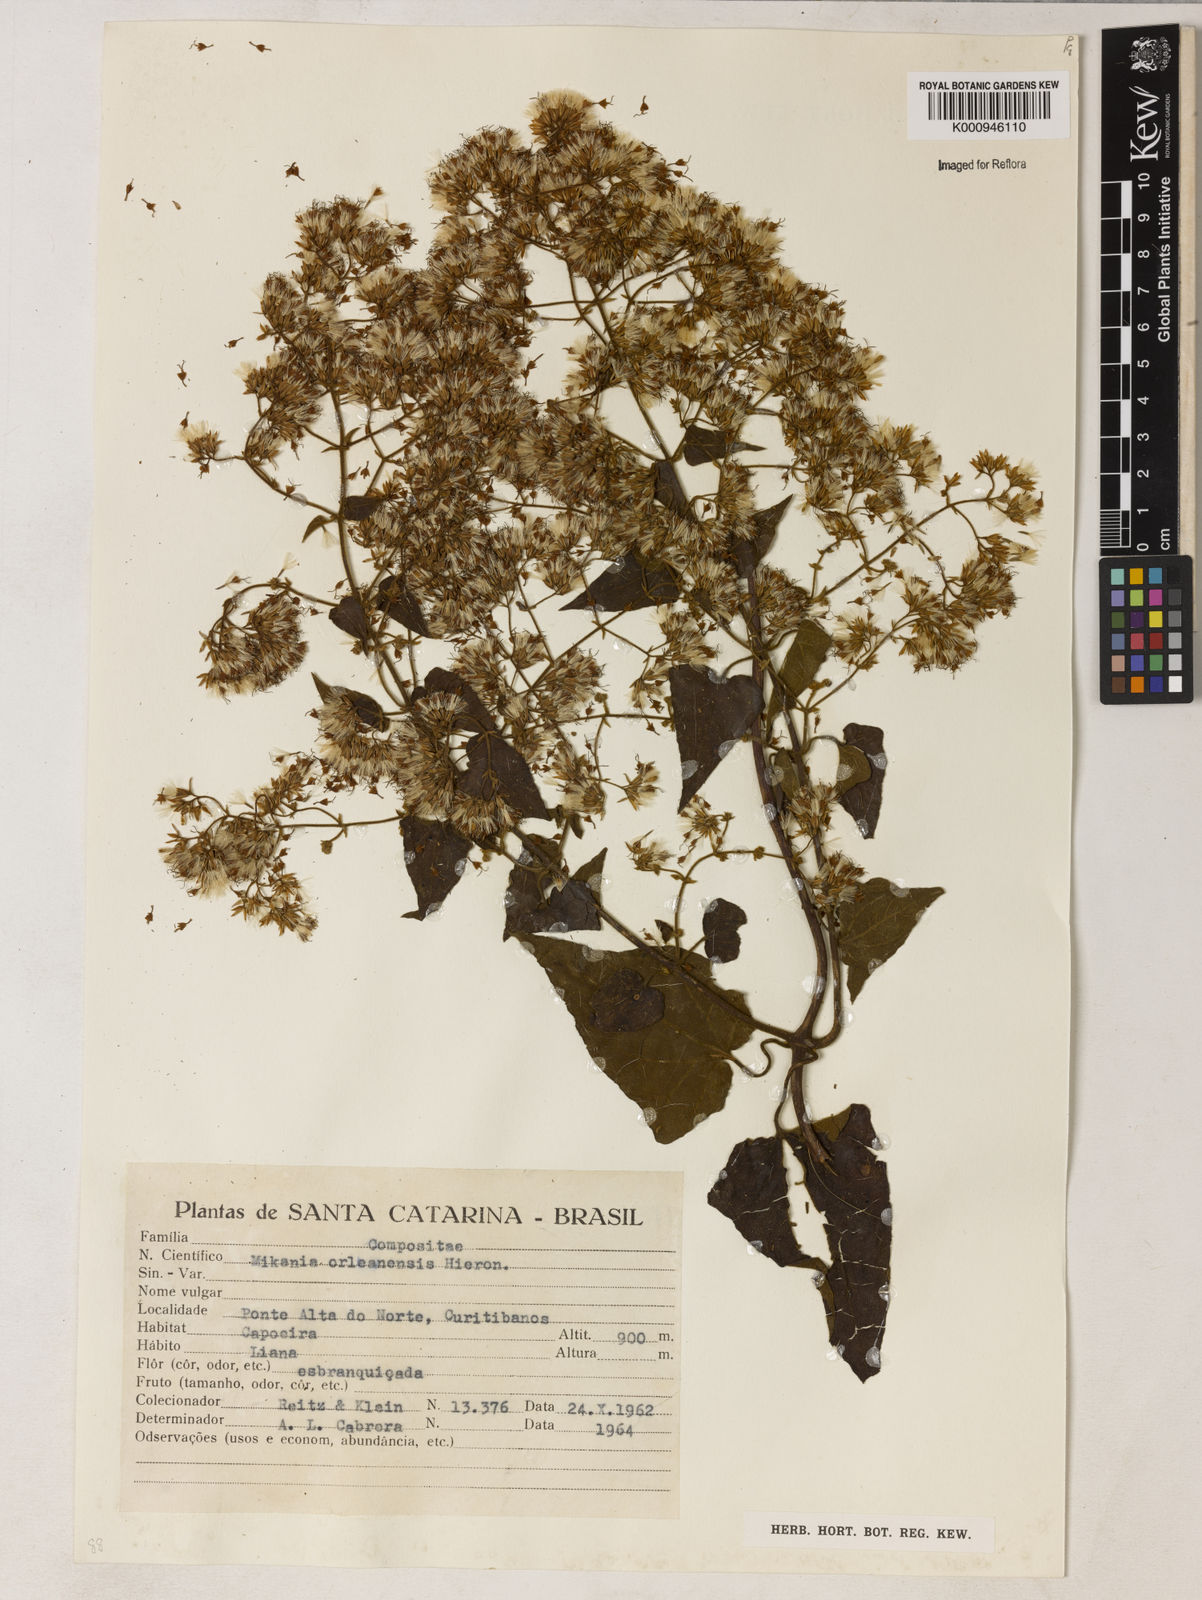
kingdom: Plantae
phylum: Tracheophyta
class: Magnoliopsida
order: Asterales
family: Asteraceae
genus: Mikania
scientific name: Mikania orleansensis
